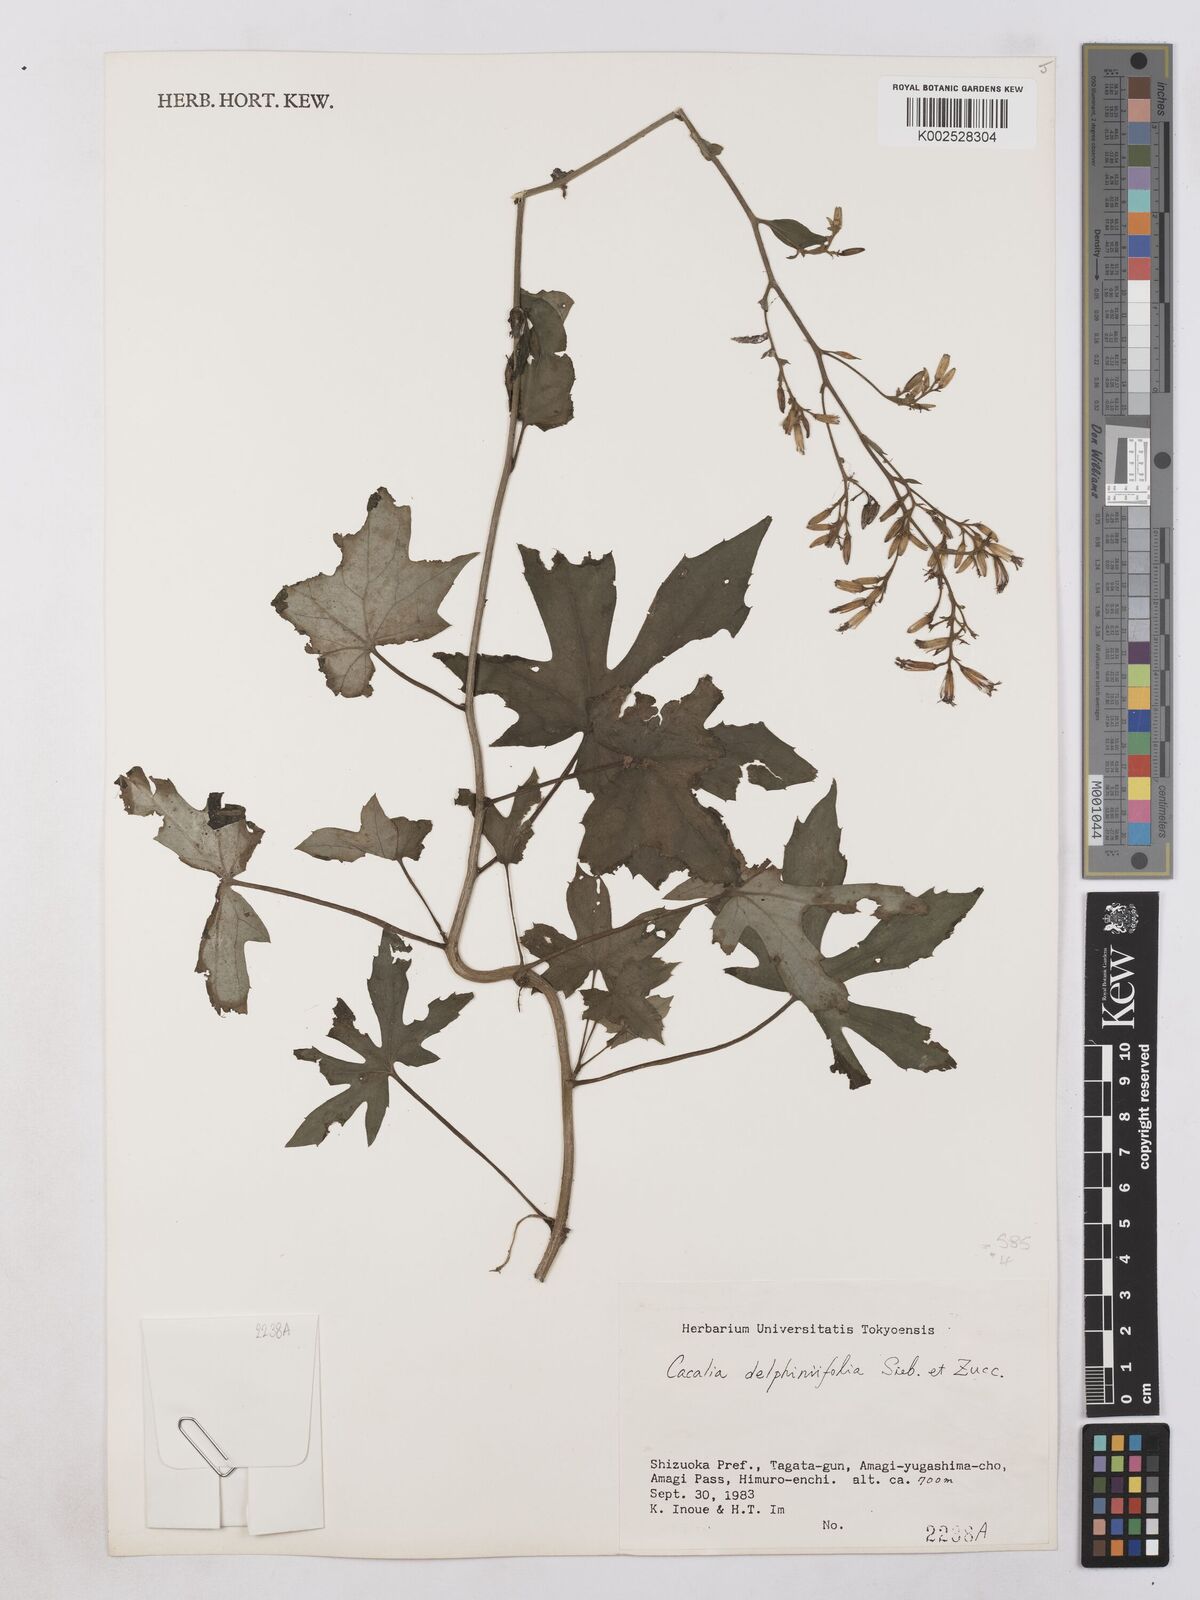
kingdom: Plantae
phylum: Tracheophyta
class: Magnoliopsida
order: Asterales
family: Asteraceae
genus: Japonicalia
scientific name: Japonicalia delphiniifolia
